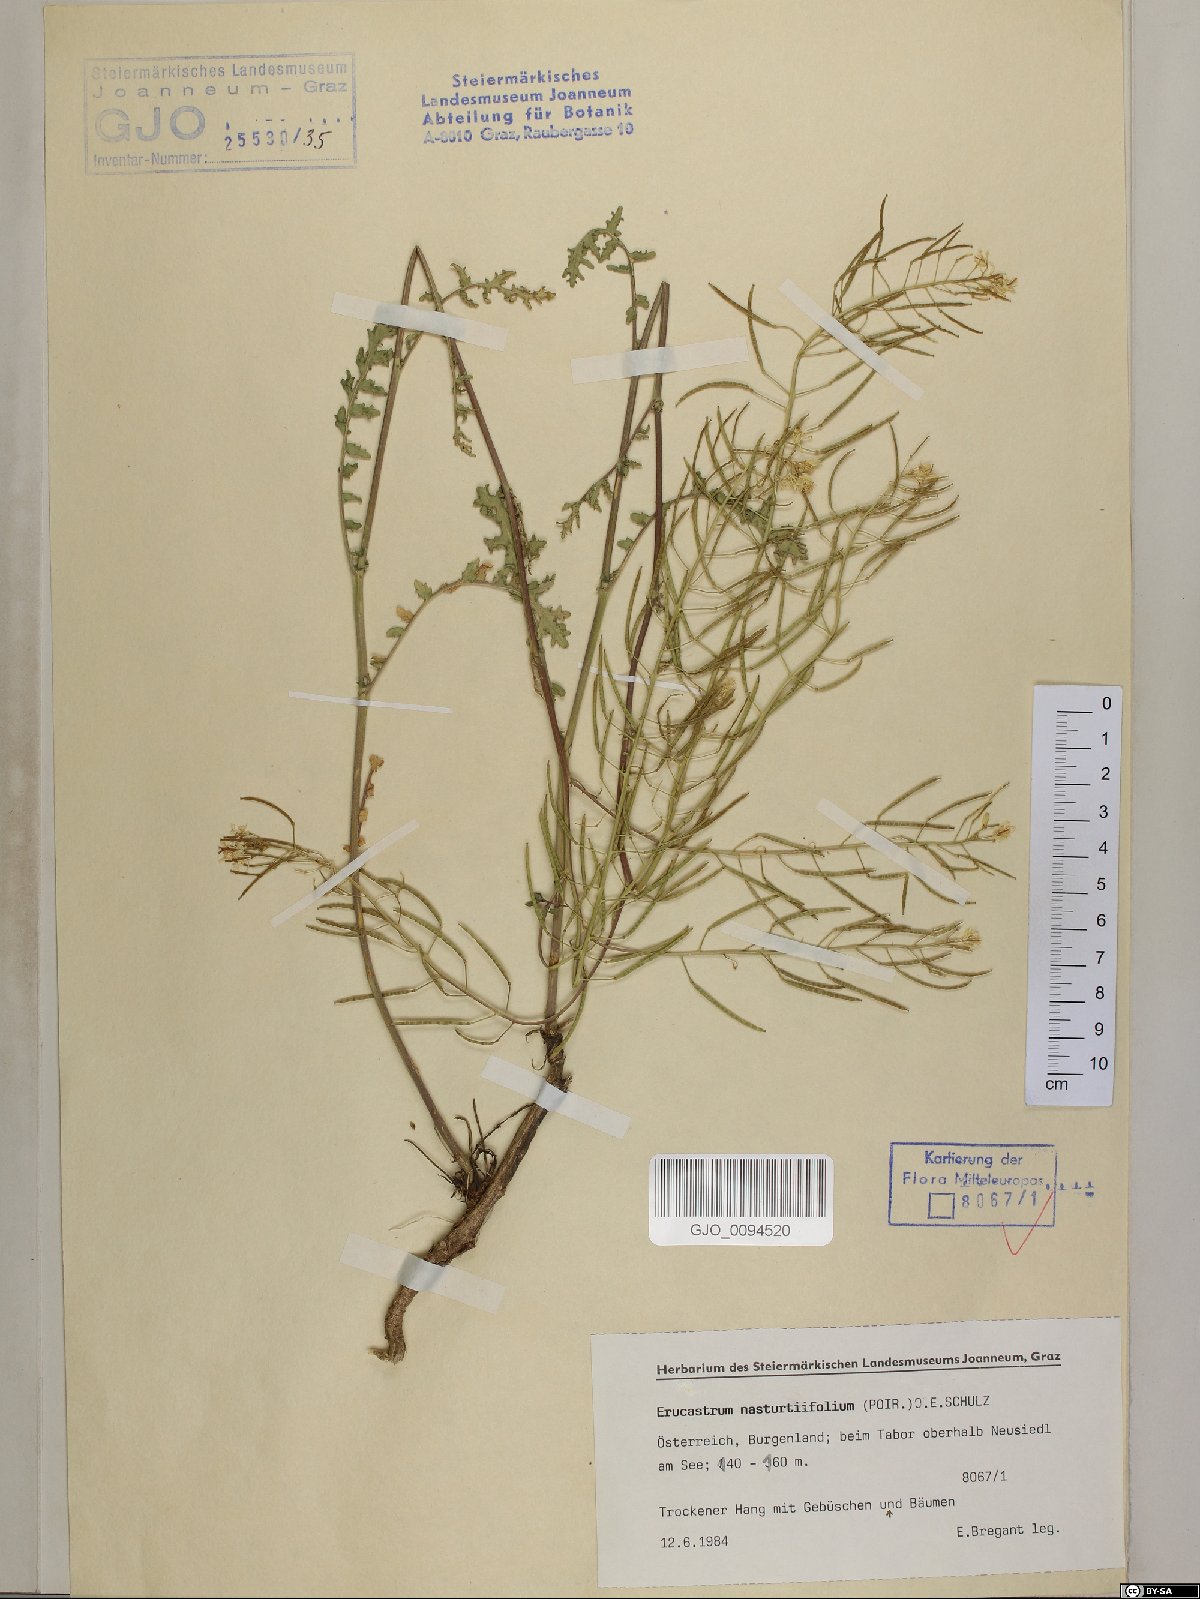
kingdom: Plantae
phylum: Tracheophyta
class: Magnoliopsida
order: Brassicales
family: Brassicaceae
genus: Erucastrum
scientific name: Erucastrum nasturtiifolium
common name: Watercress-leaf rocket
